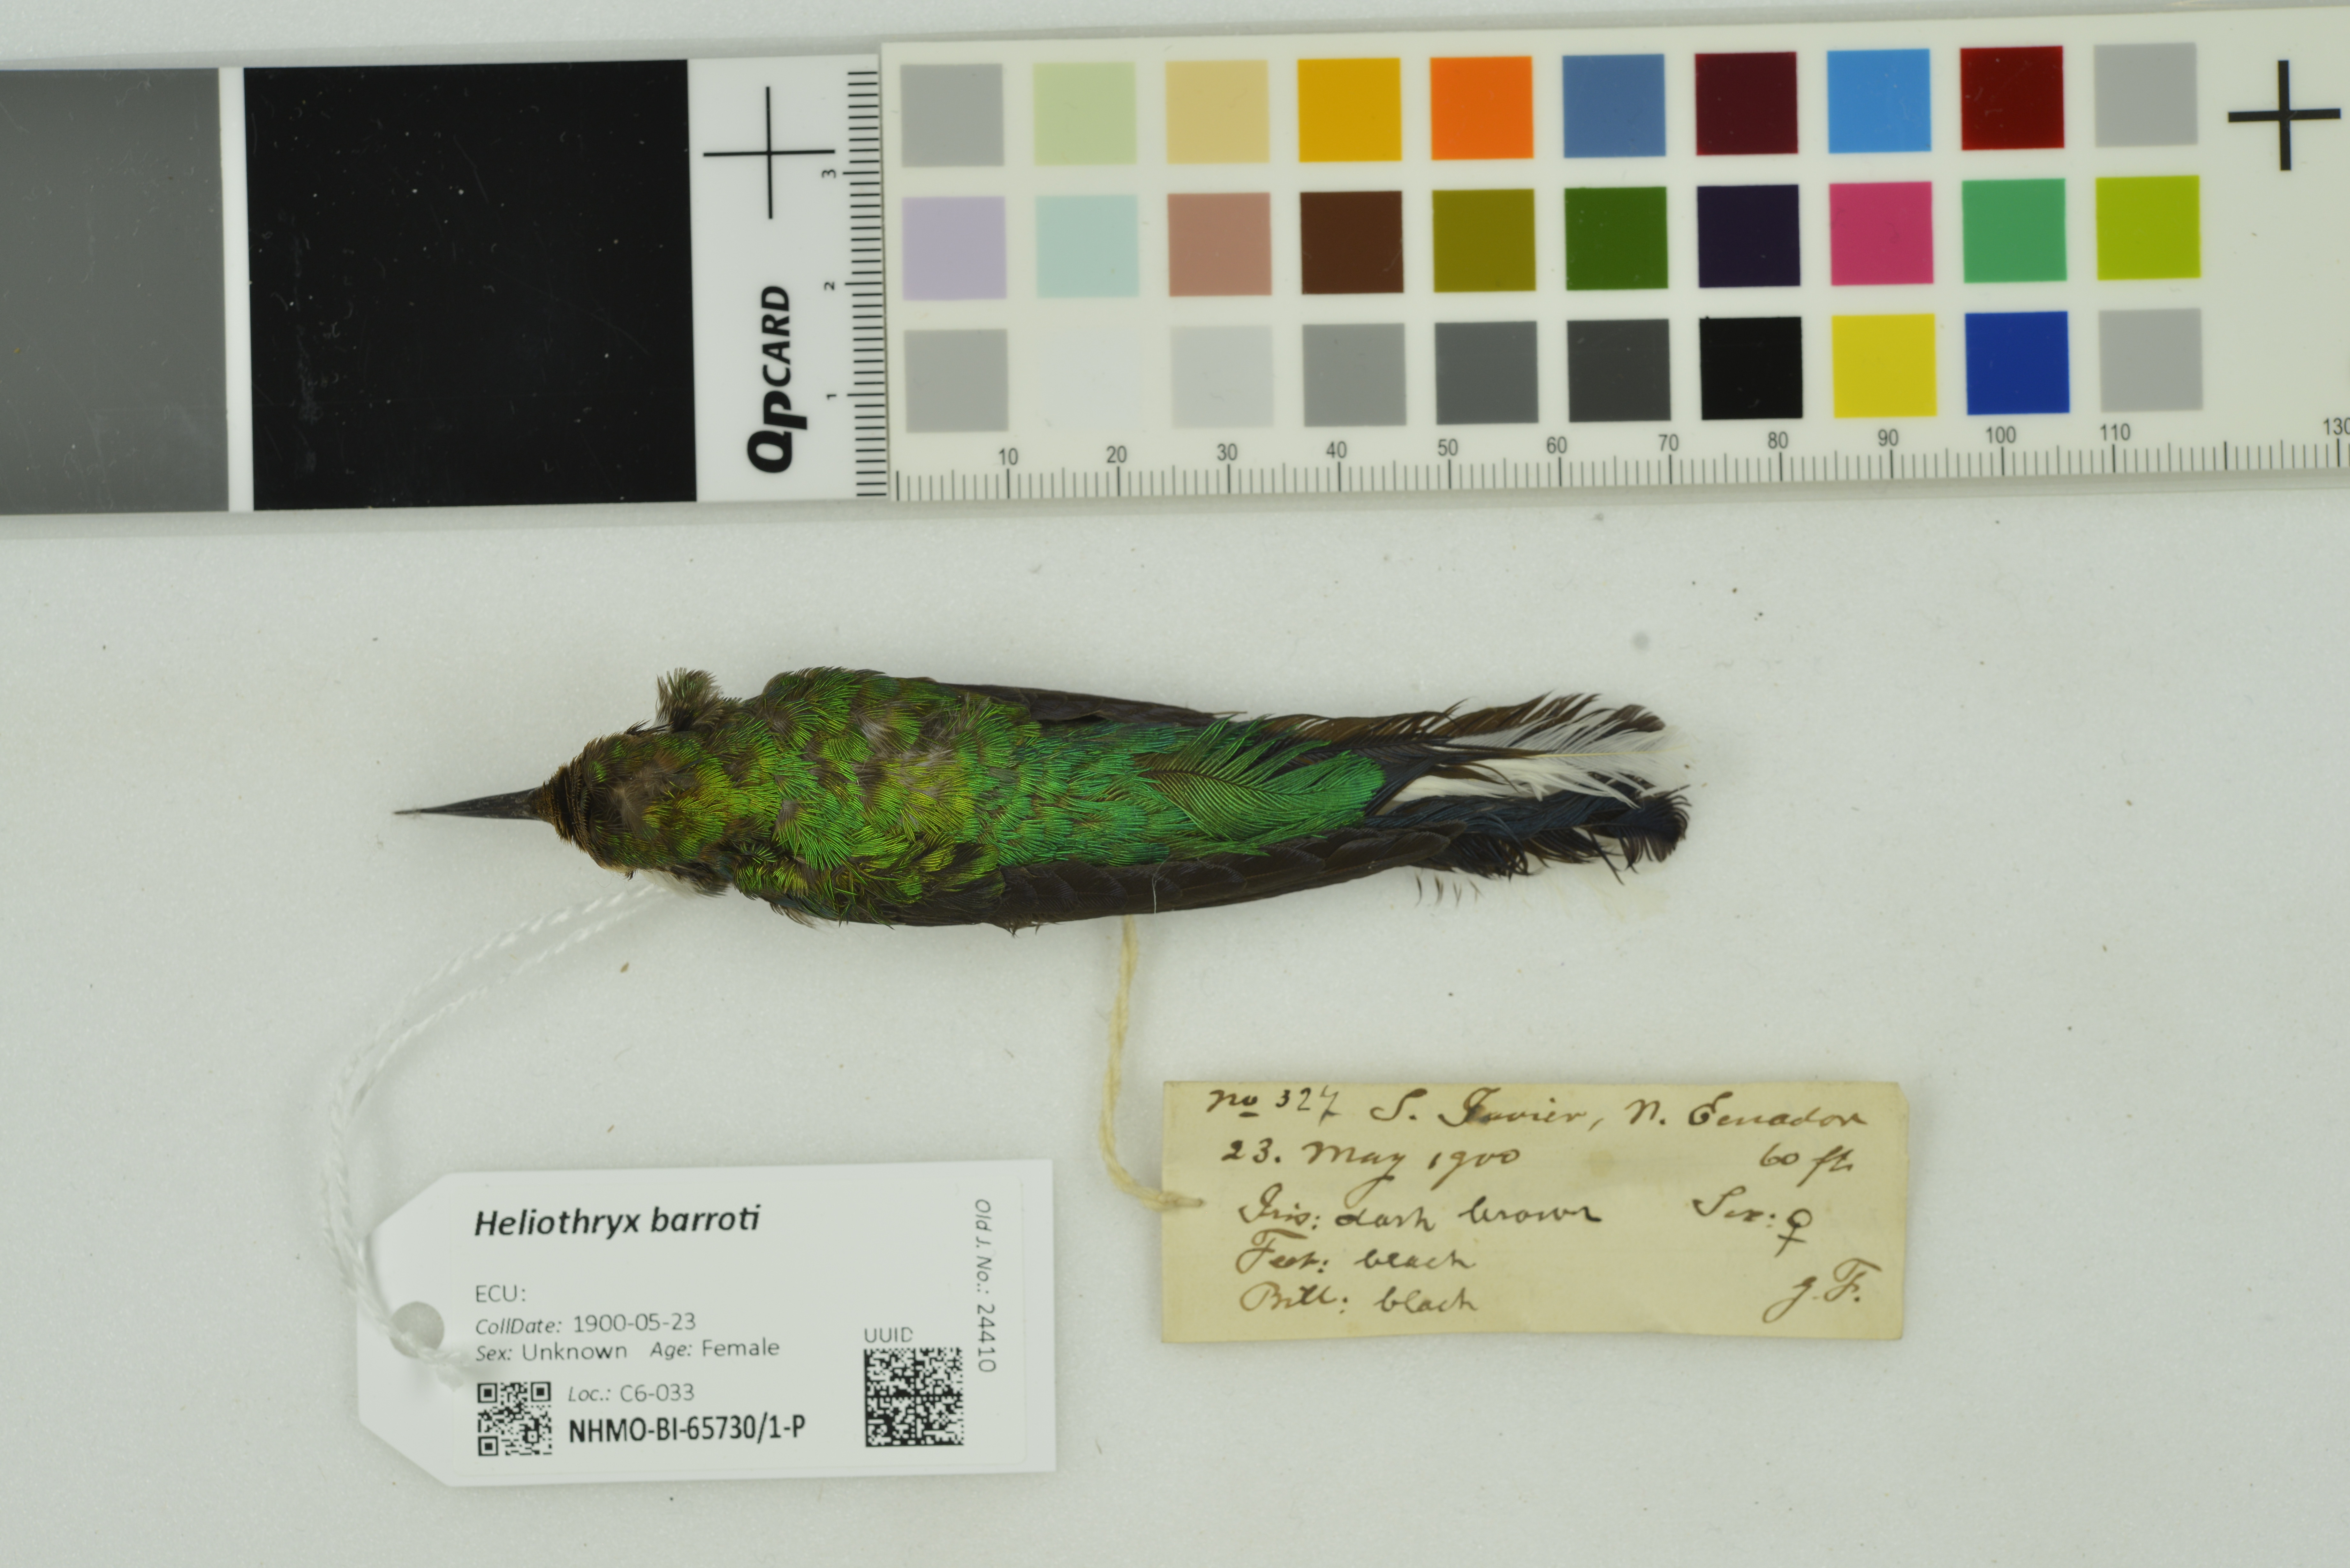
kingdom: Animalia
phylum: Chordata
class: Aves
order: Apodiformes
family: Trochilidae
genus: Heliothryx
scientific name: Heliothryx barroti
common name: Purple-crowned fairy
